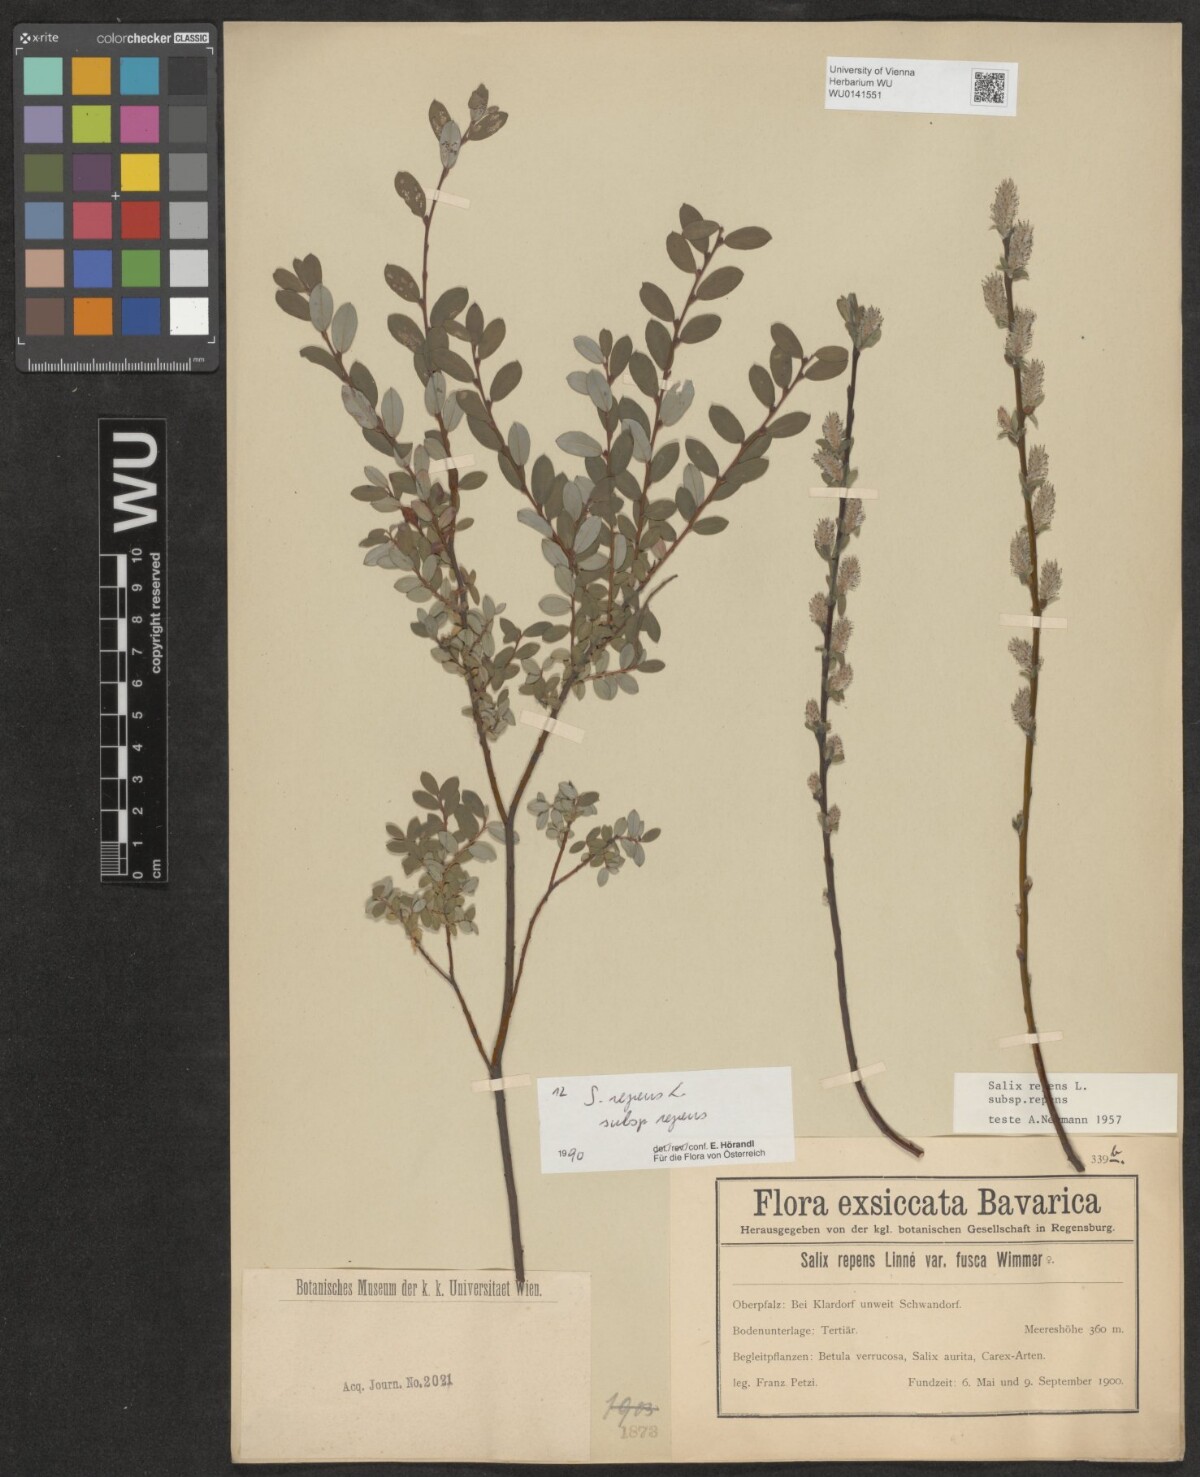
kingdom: Plantae
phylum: Tracheophyta
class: Magnoliopsida
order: Malpighiales
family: Salicaceae
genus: Salix
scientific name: Salix repens
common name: Creeping willow
